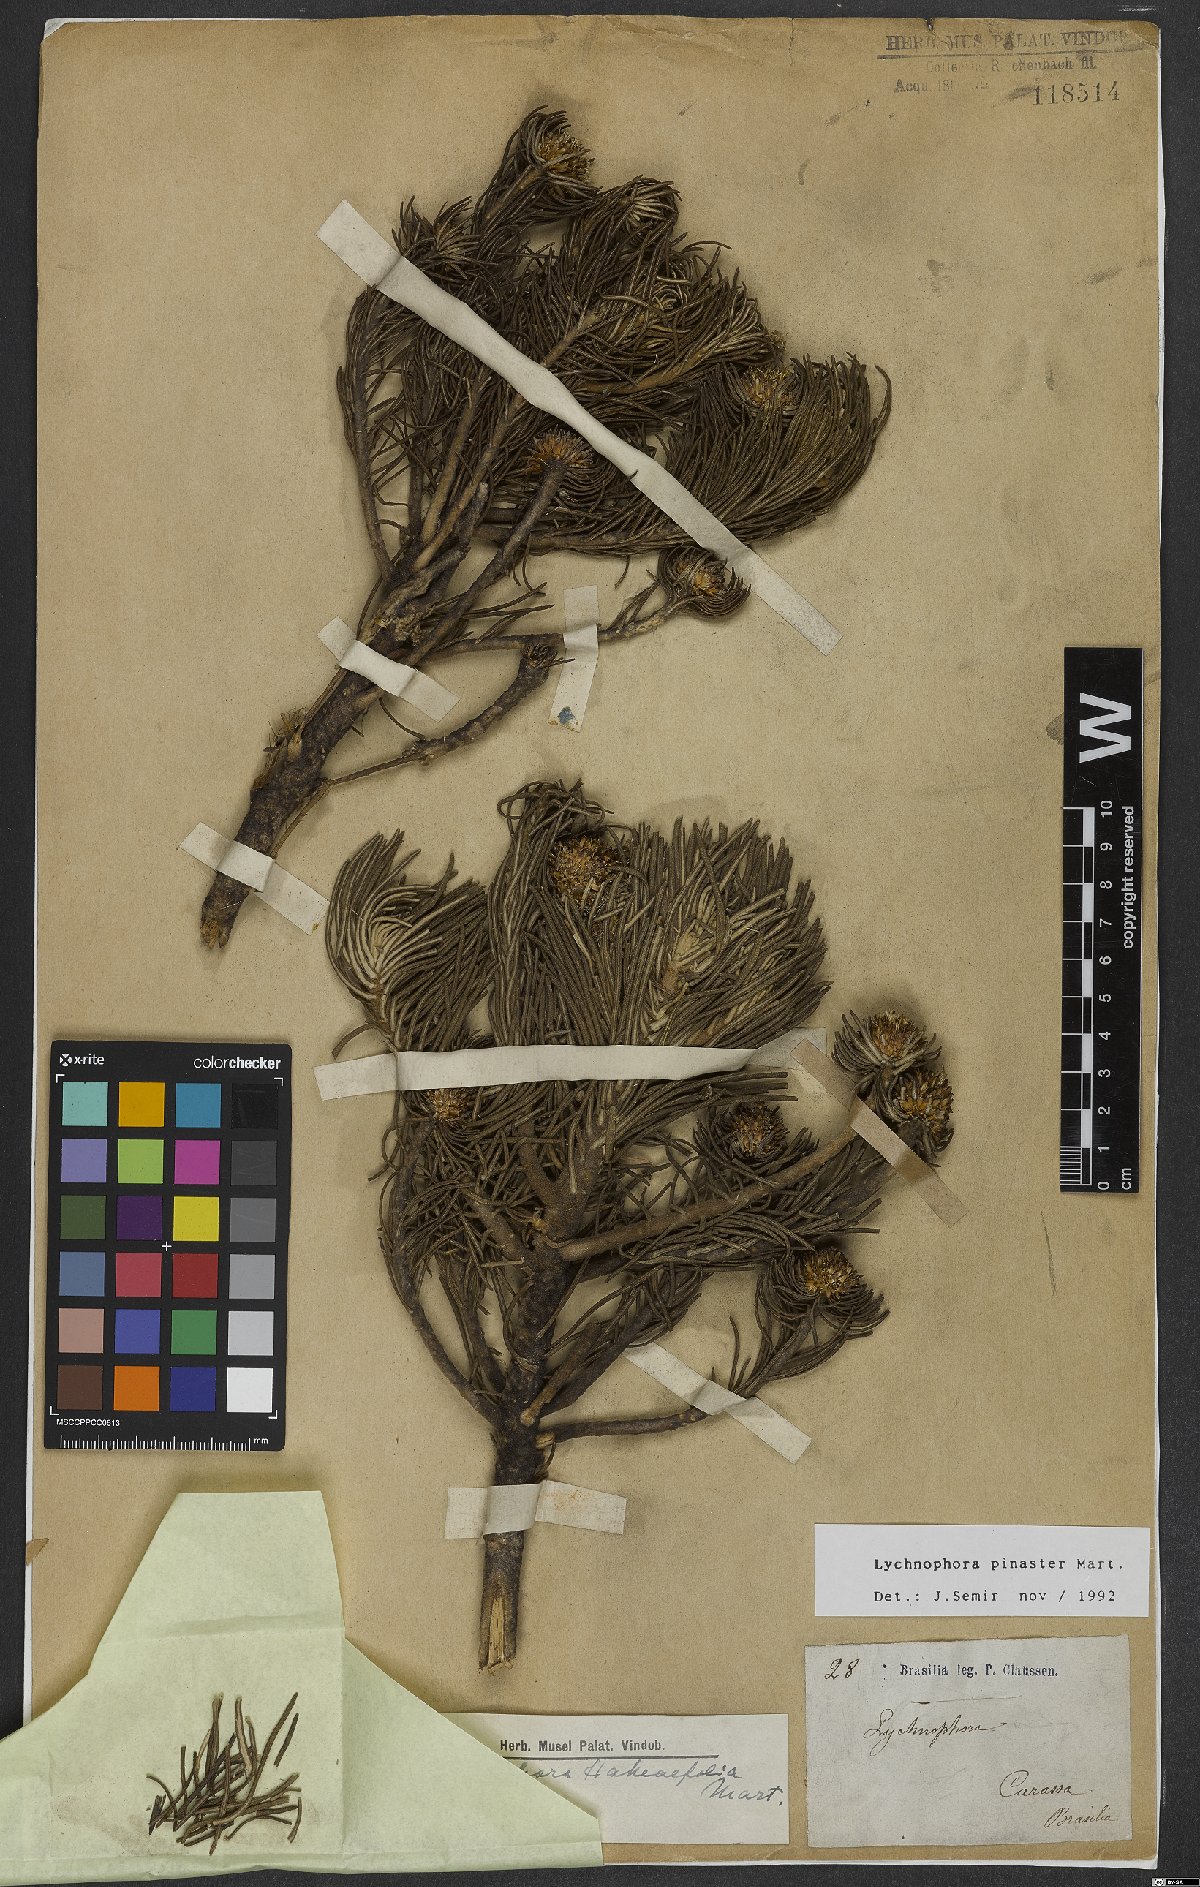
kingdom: Plantae
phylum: Tracheophyta
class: Magnoliopsida
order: Asterales
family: Asteraceae
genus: Lychnophora
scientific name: Lychnophora pinaster
